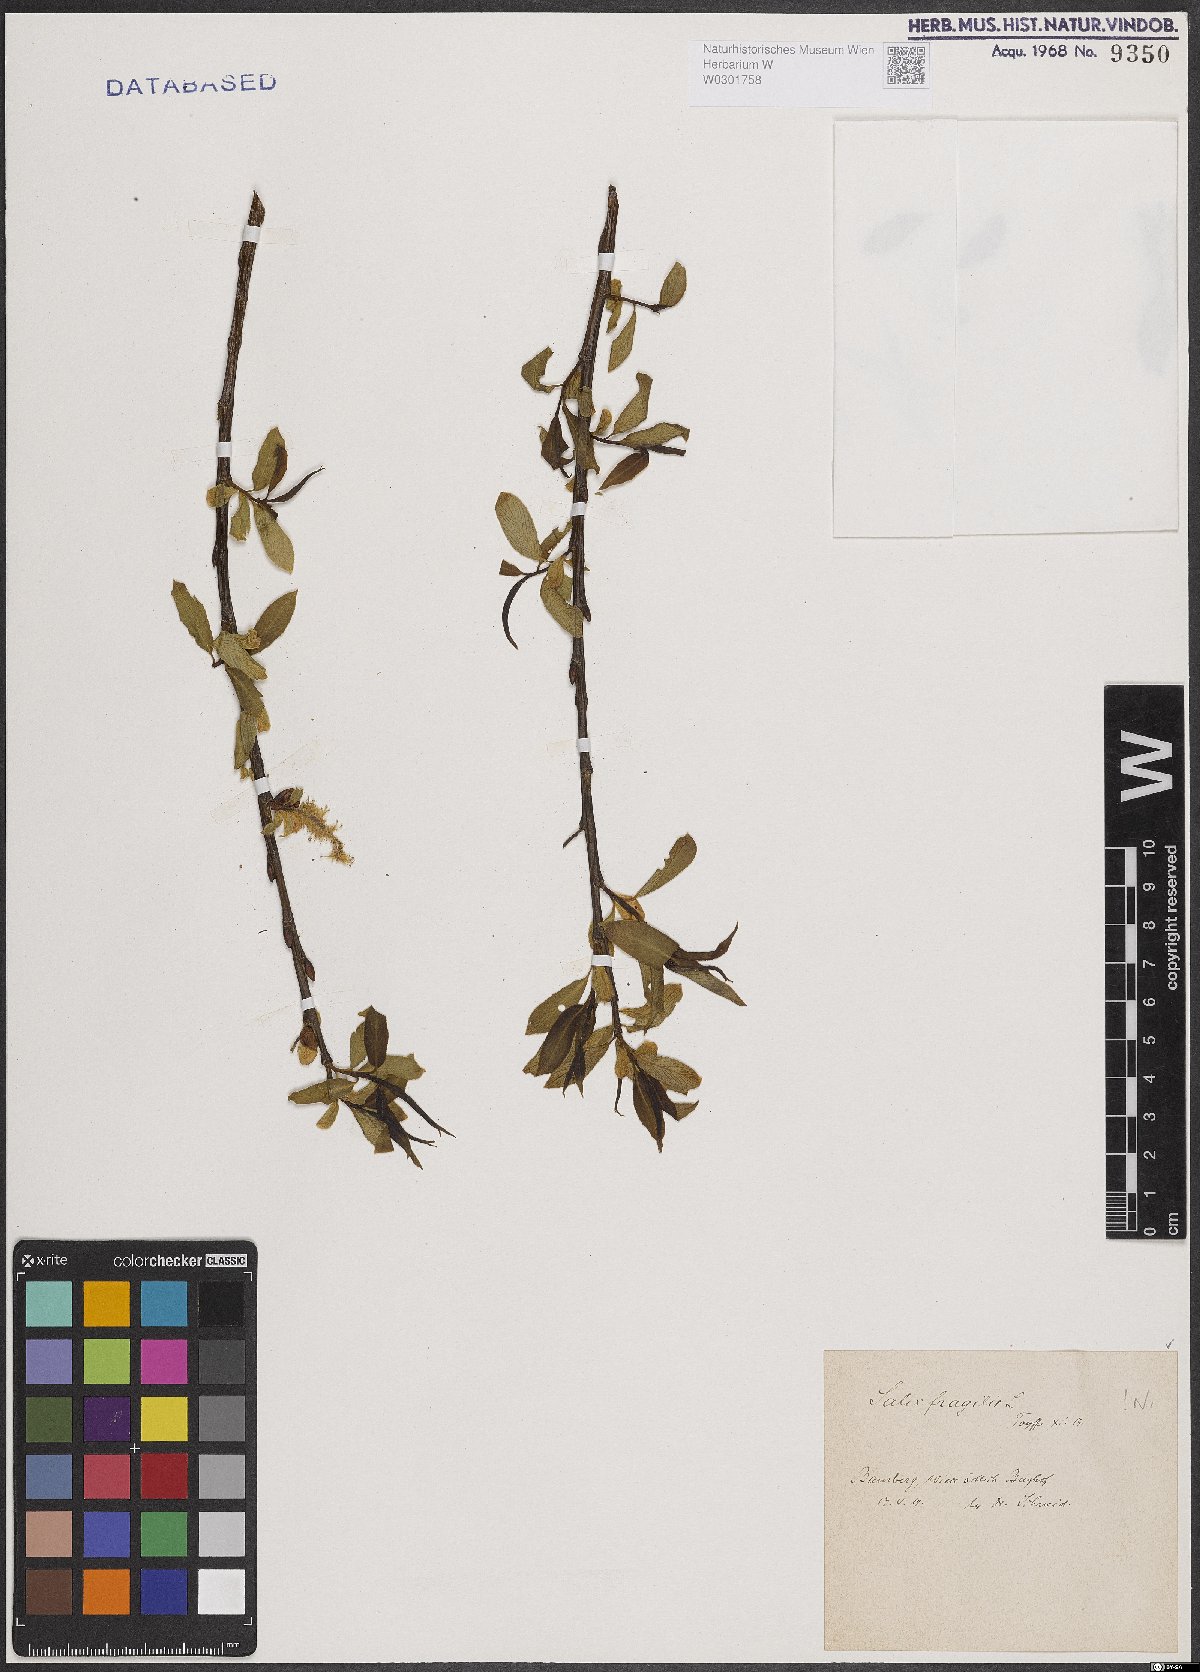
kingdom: Plantae
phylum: Tracheophyta
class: Magnoliopsida
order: Malpighiales
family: Salicaceae
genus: Salix
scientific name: Salix fragilis
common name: Crack willow
